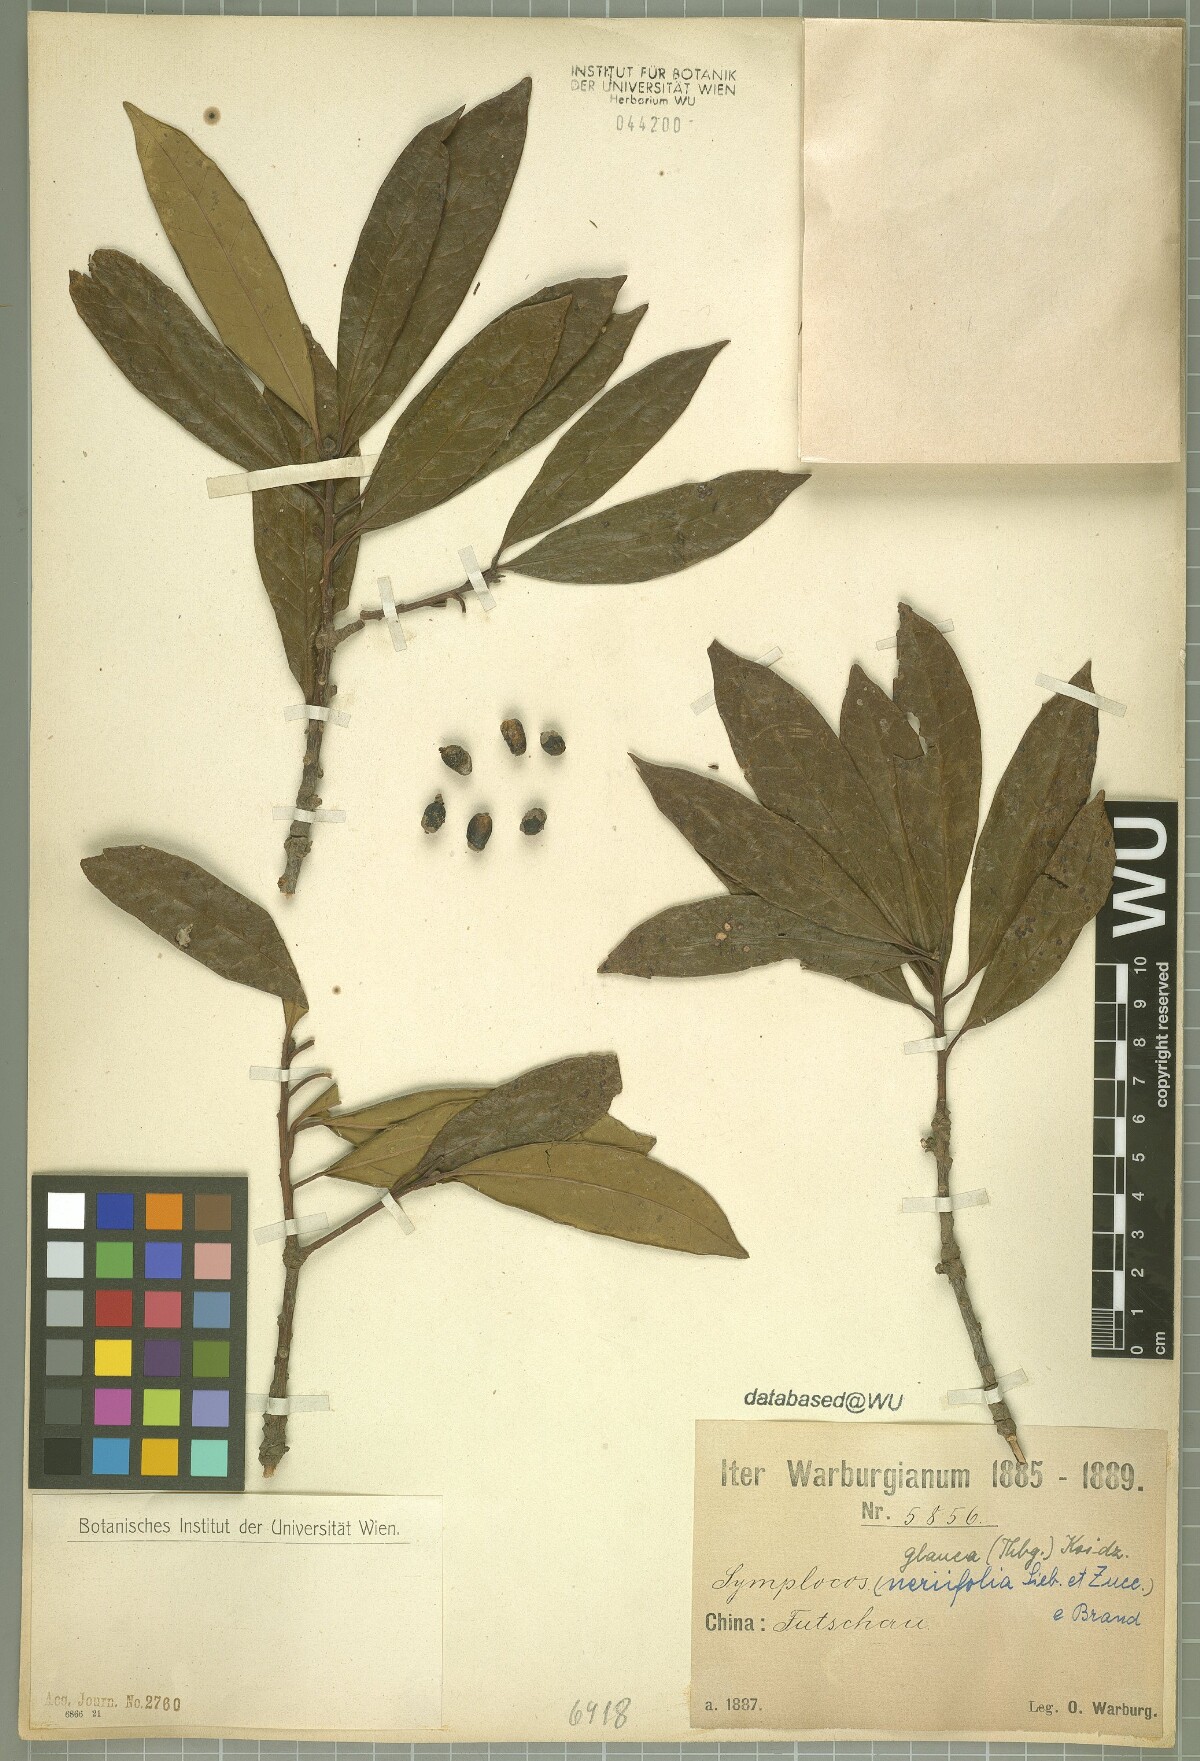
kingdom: Plantae
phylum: Tracheophyta
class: Magnoliopsida
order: Ericales
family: Symplocaceae
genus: Symplocos
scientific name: Symplocos glauca
